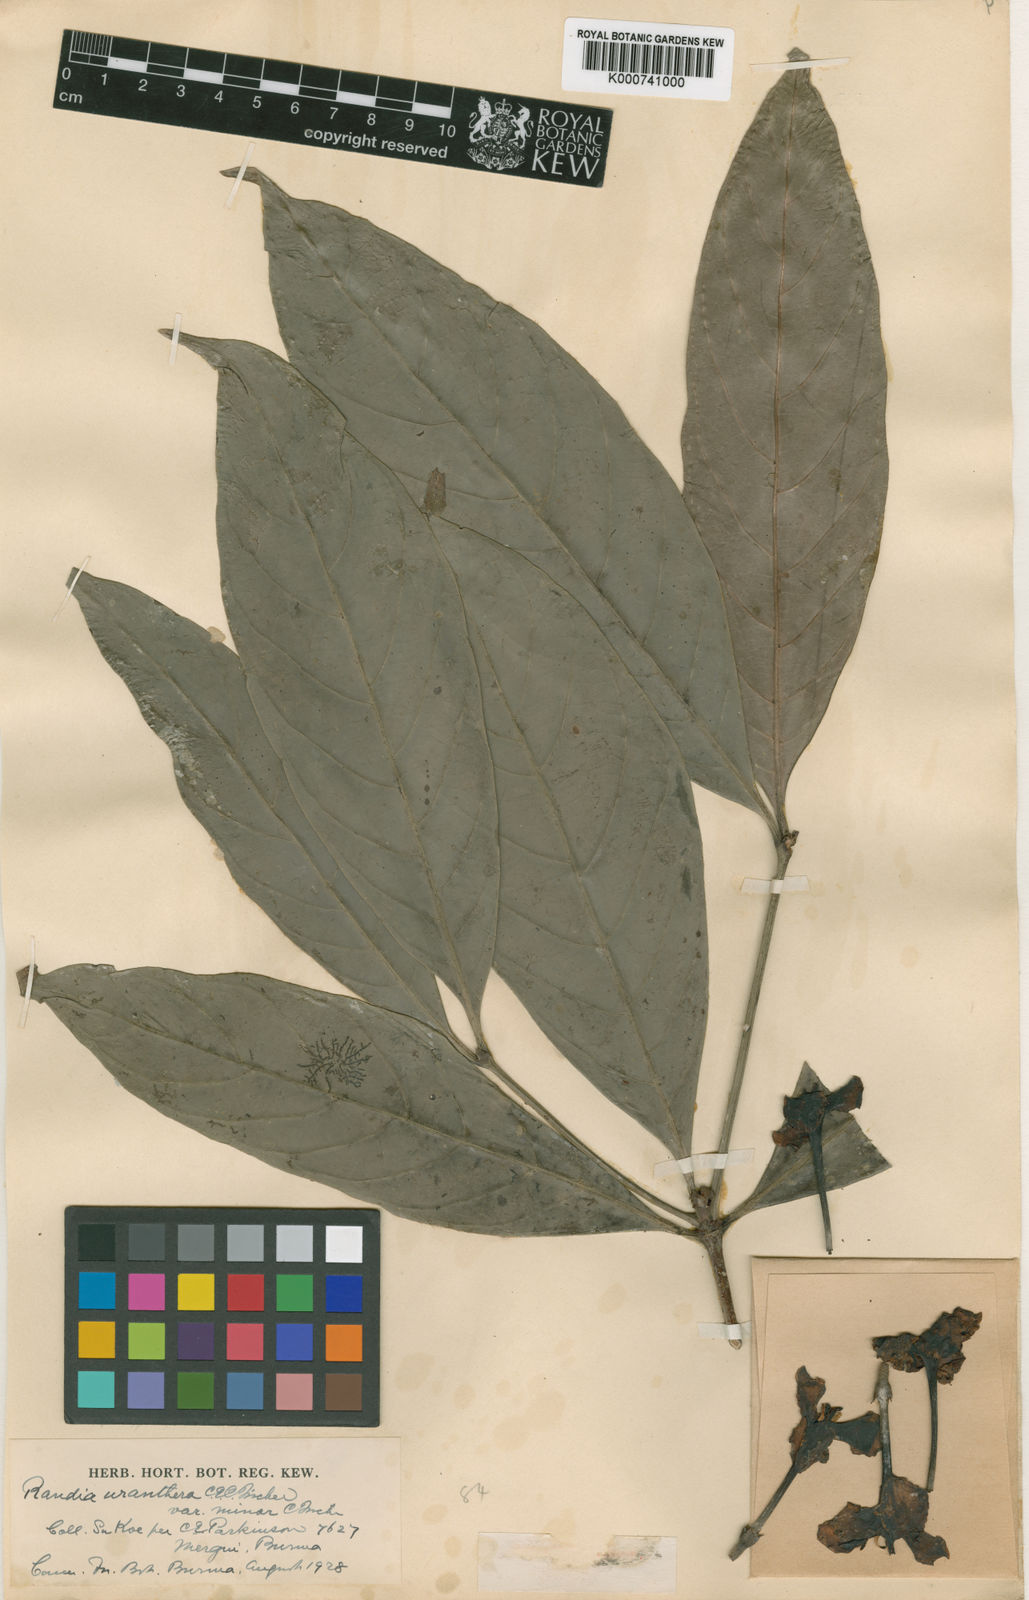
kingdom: Plantae
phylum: Tracheophyta
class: Magnoliopsida
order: Gentianales
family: Rubiaceae
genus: Ridsdalea
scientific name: Ridsdalea uranthera
